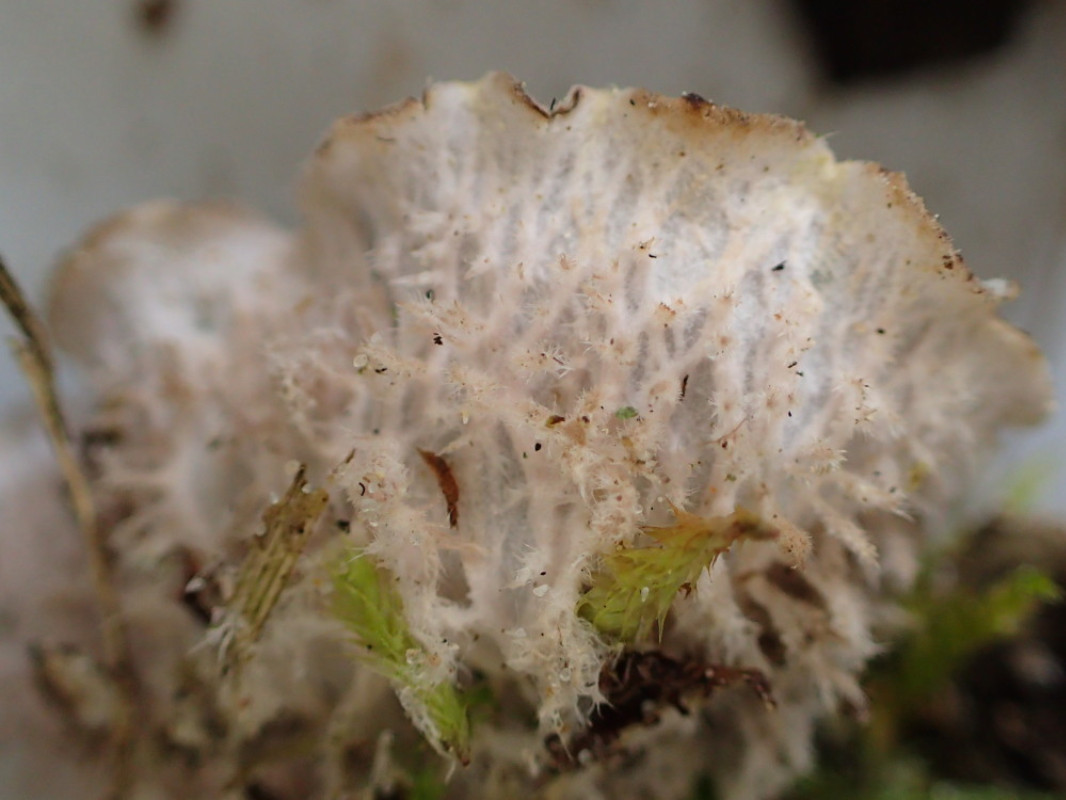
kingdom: Fungi
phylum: Ascomycota
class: Lecanoromycetes
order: Peltigerales
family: Peltigeraceae
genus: Peltigera
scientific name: Peltigera canina
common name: hunde-skjoldlav
